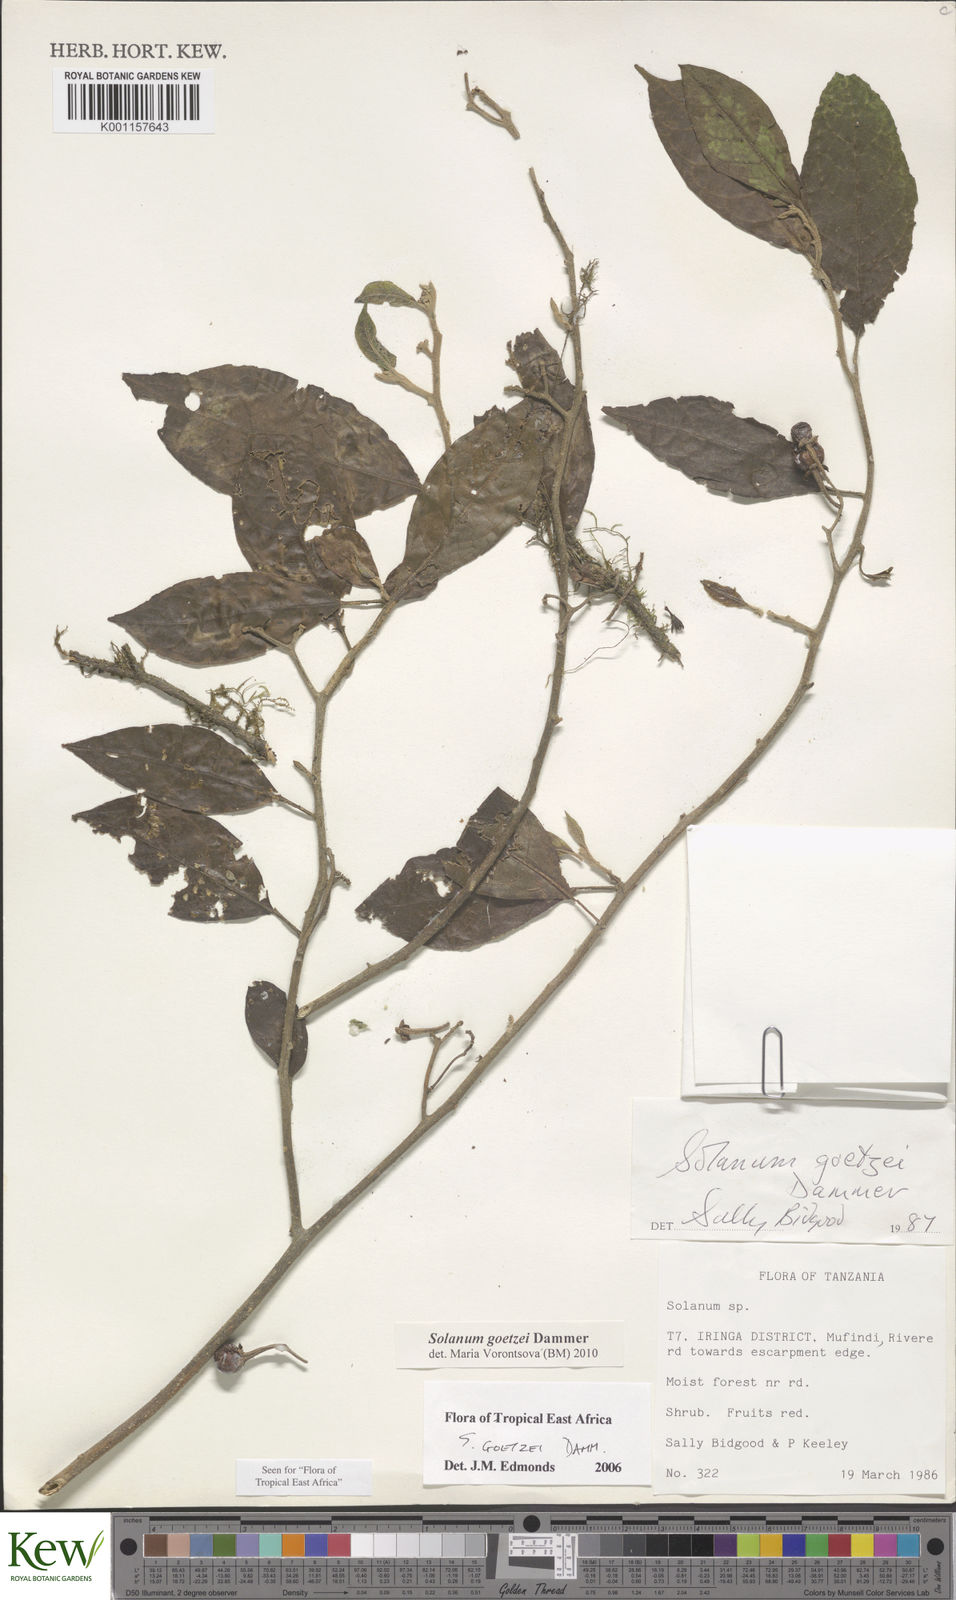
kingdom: Plantae
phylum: Tracheophyta
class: Magnoliopsida
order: Solanales
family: Solanaceae
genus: Solanum
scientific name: Solanum goetzei
